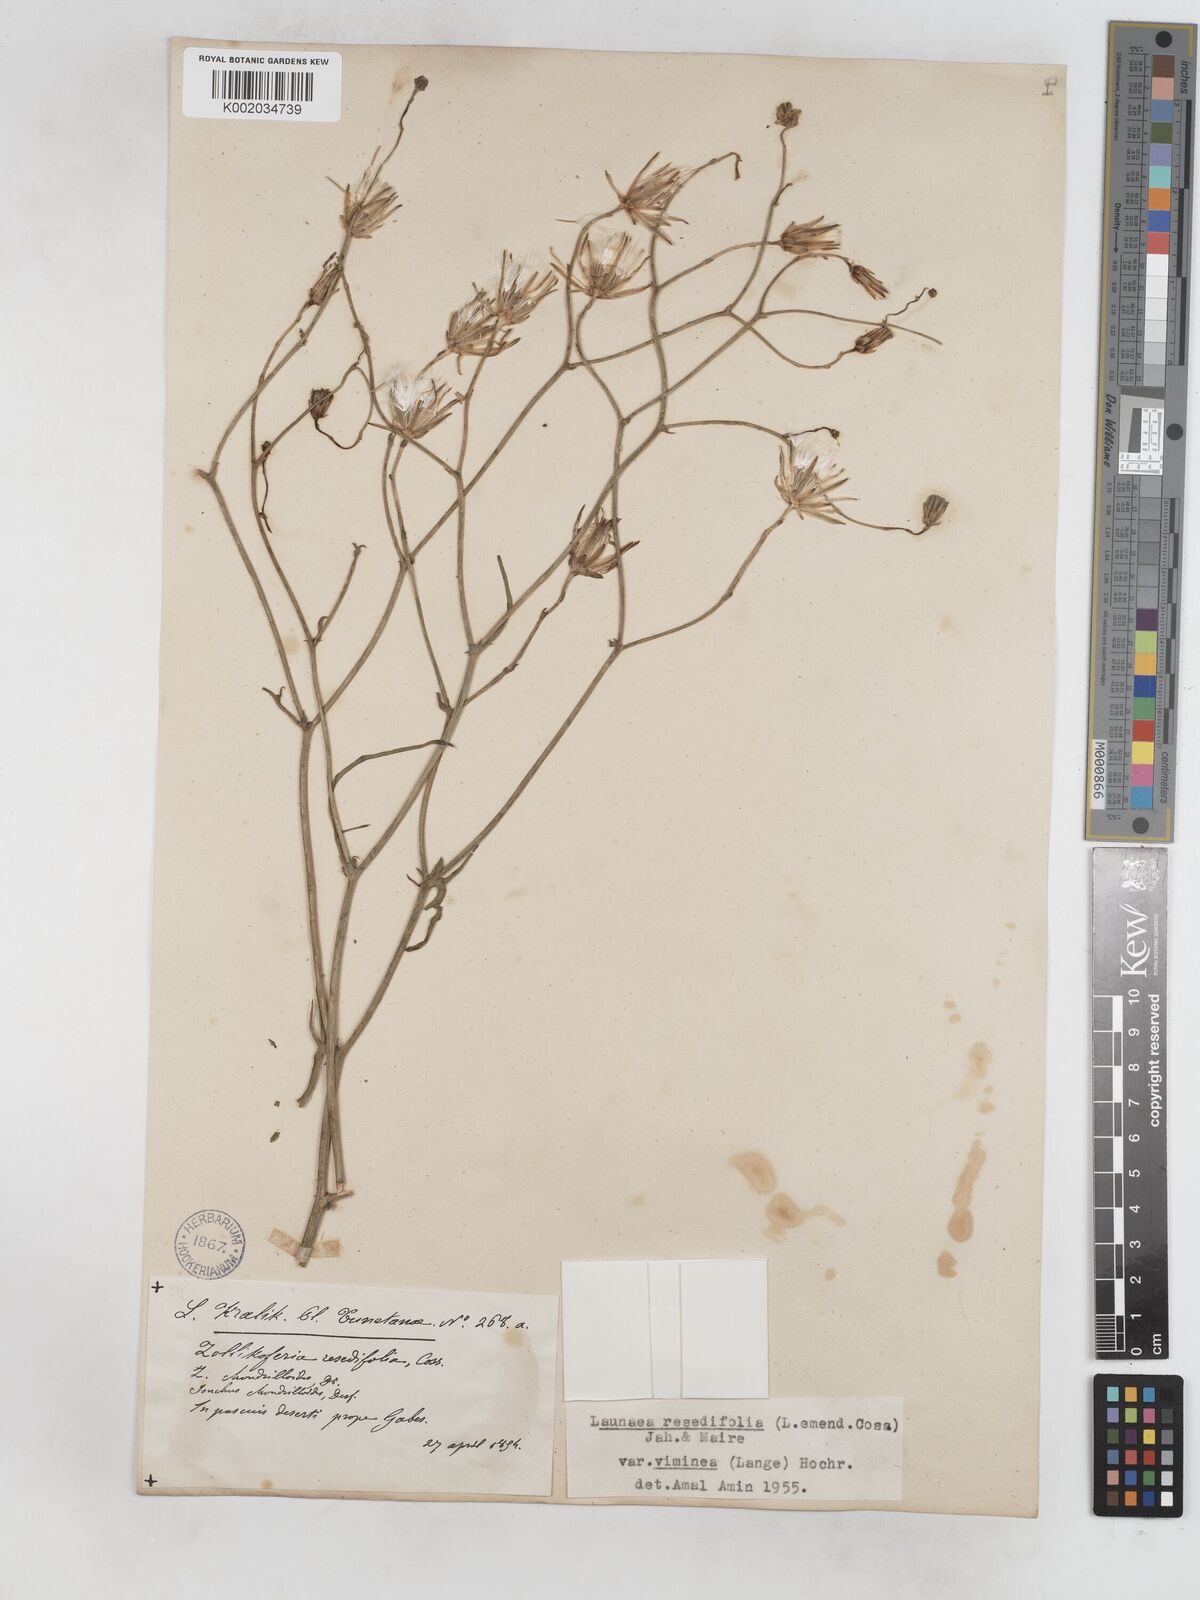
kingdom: Plantae
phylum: Tracheophyta
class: Magnoliopsida
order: Asterales
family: Asteraceae
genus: Launaea
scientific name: Launaea
